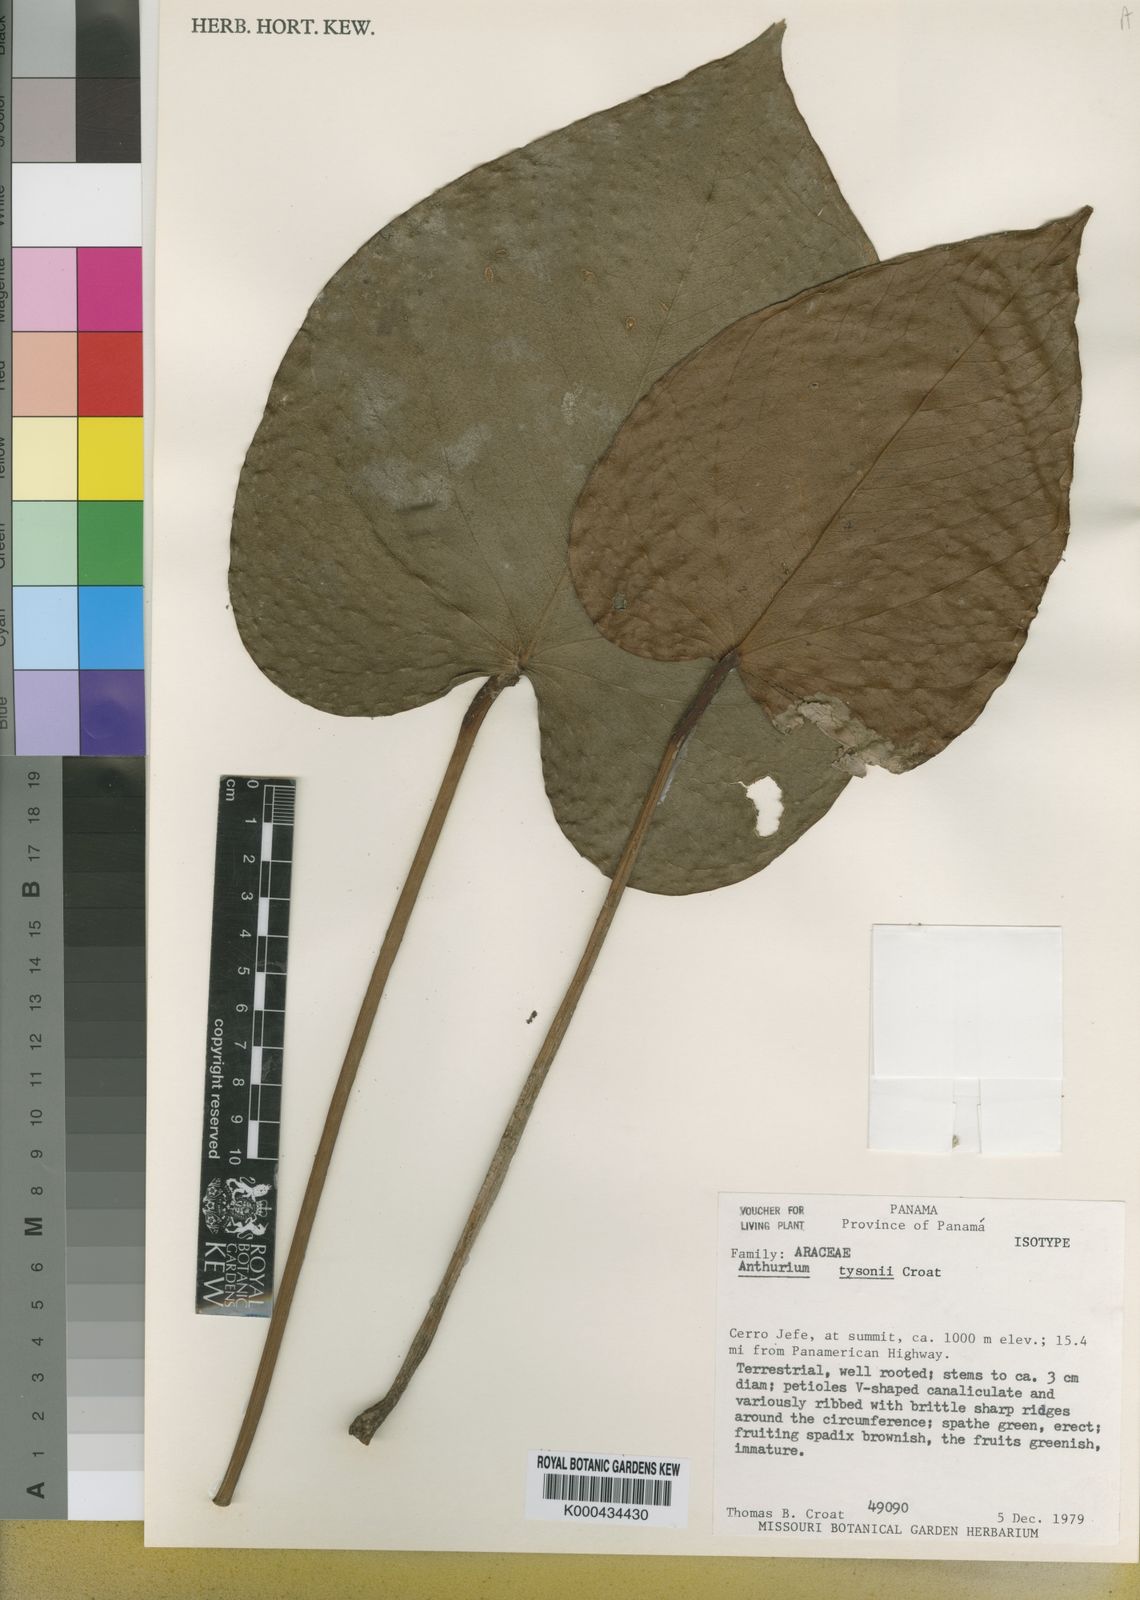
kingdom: Plantae
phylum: Tracheophyta
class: Liliopsida
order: Alismatales
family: Araceae
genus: Anthurium
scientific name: Anthurium tysonii
